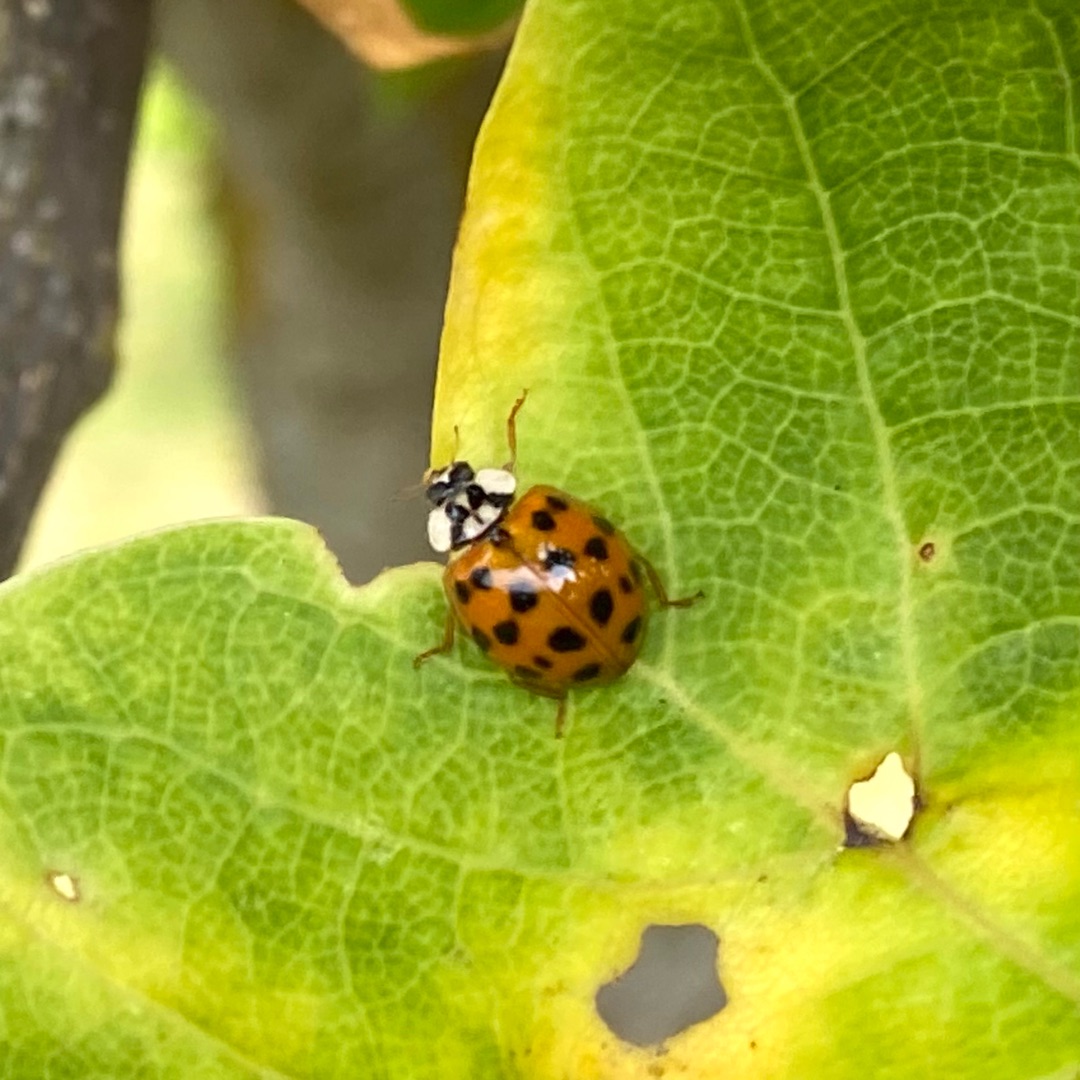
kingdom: Animalia
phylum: Arthropoda
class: Insecta
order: Coleoptera
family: Coccinellidae
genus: Harmonia
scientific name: Harmonia axyridis
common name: Harlekinmariehøne
